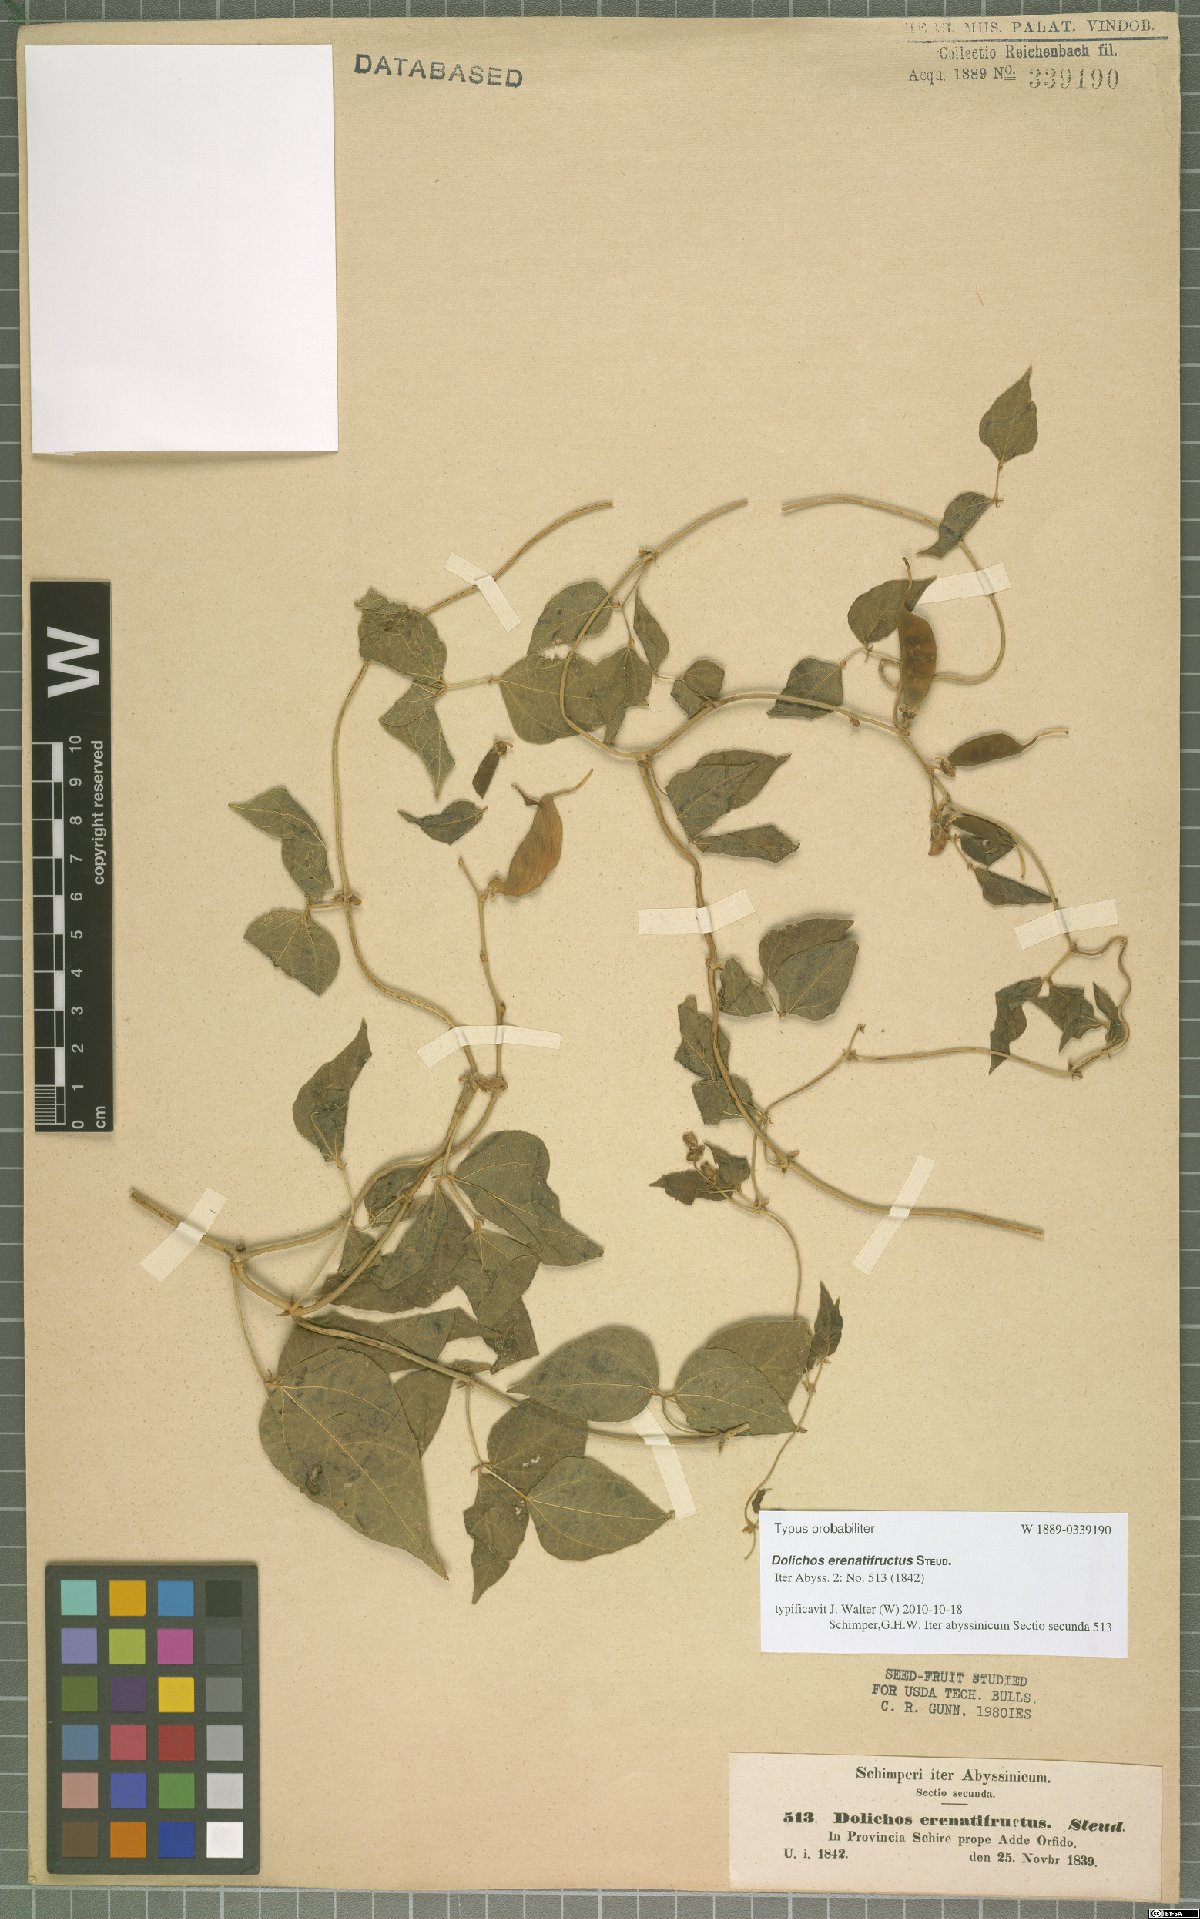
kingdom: Plantae
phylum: Tracheophyta
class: Magnoliopsida
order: Fabales
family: Fabaceae
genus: Dolichos
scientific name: Dolichos
